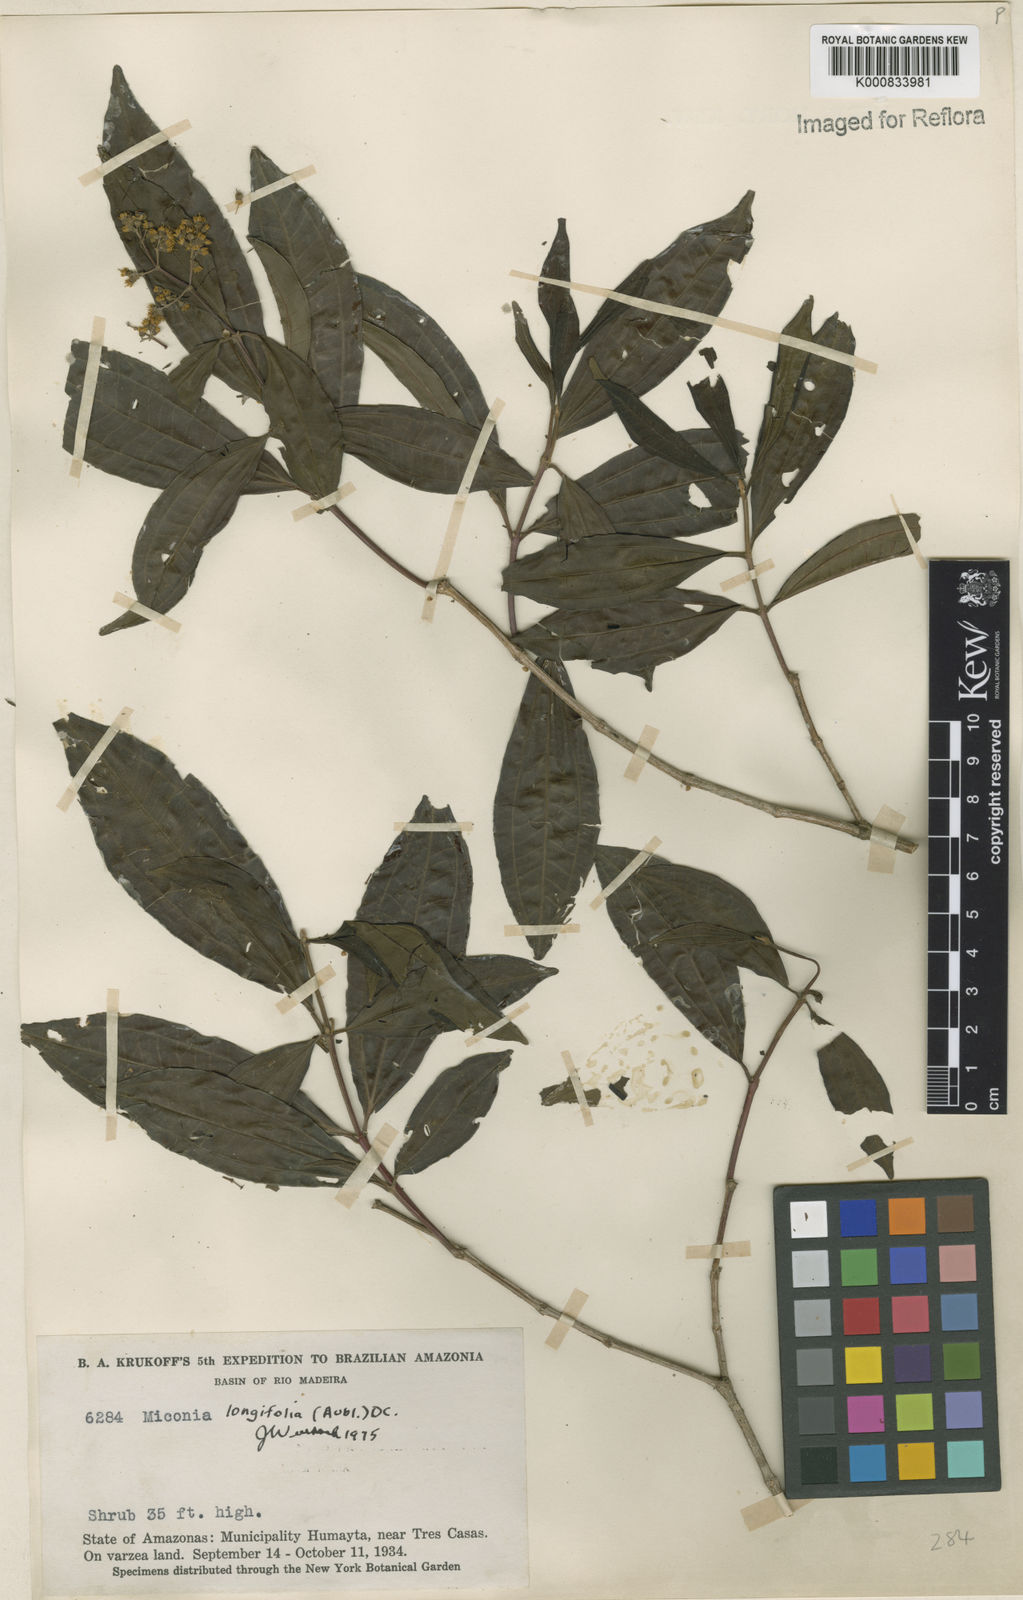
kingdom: Plantae
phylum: Tracheophyta
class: Magnoliopsida
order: Myrtales
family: Melastomataceae
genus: Miconia
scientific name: Miconia longifolia
